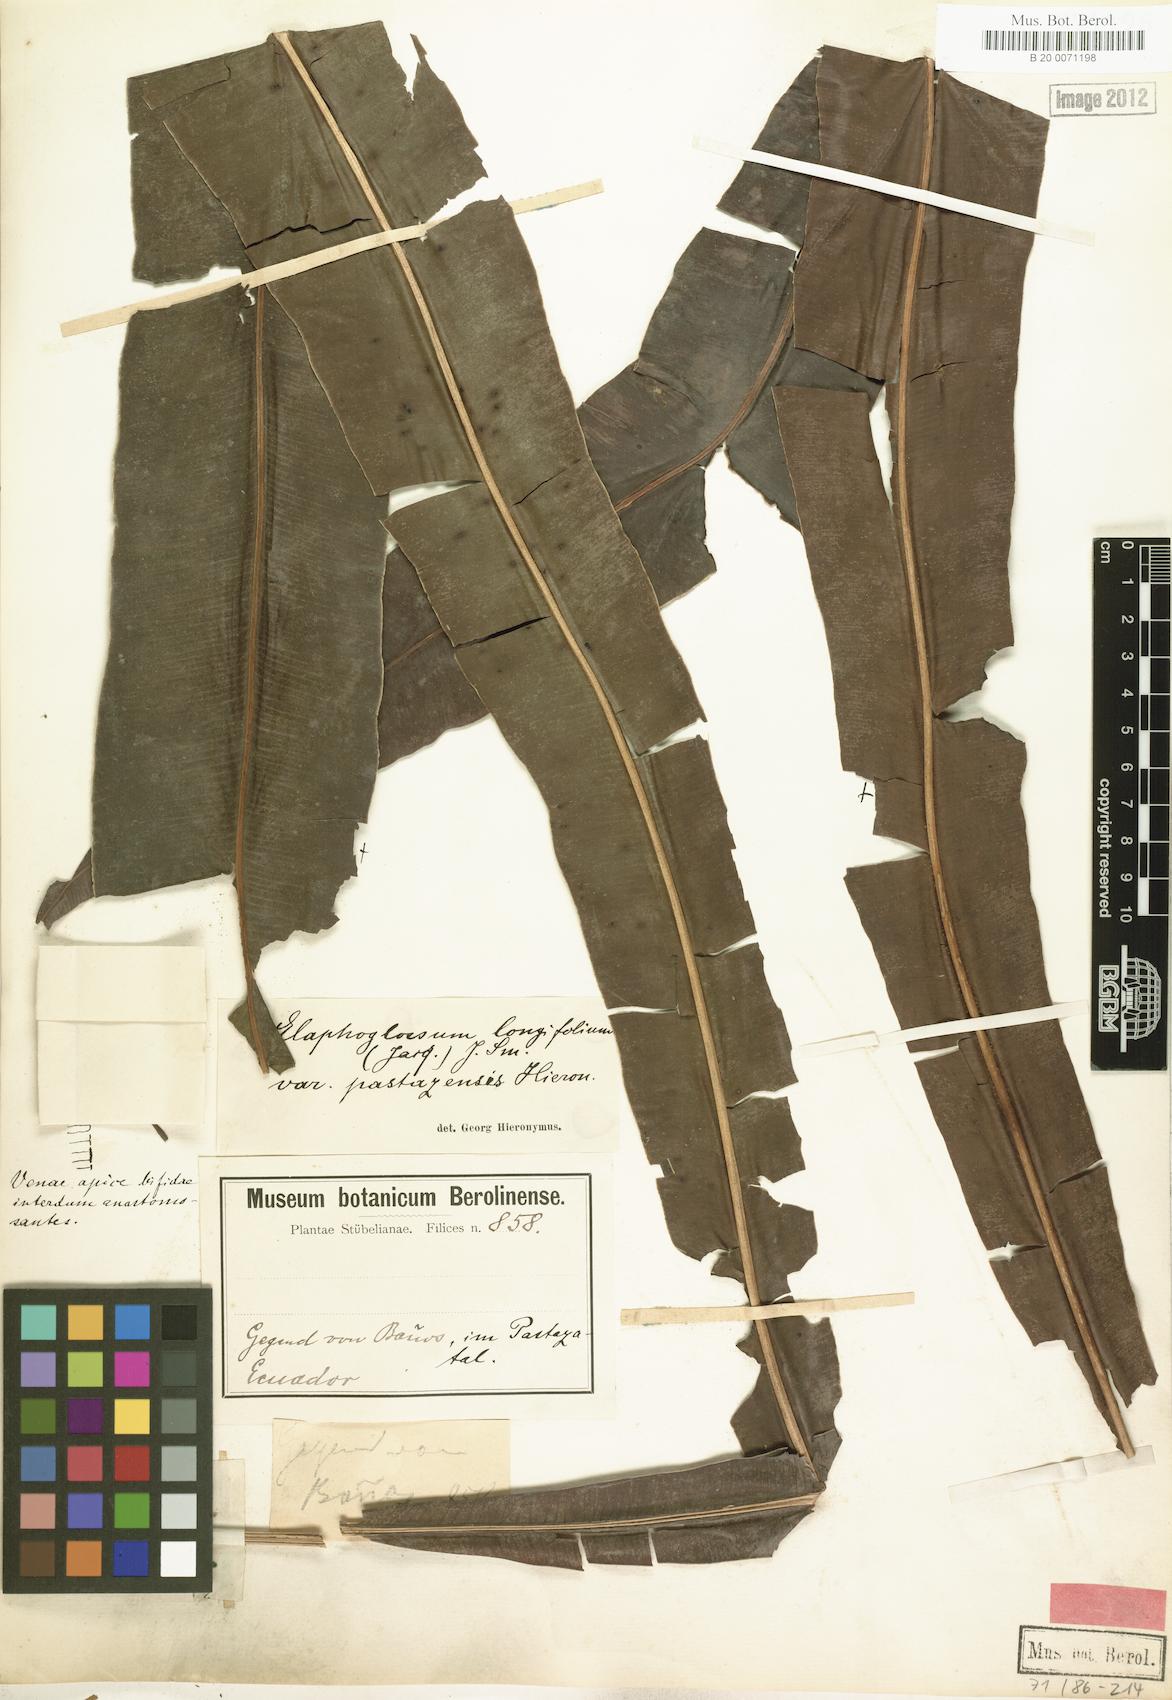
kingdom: Plantae
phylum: Tracheophyta
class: Polypodiopsida
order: Polypodiales
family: Dryopteridaceae
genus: Elaphoglossum
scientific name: Elaphoglossum
